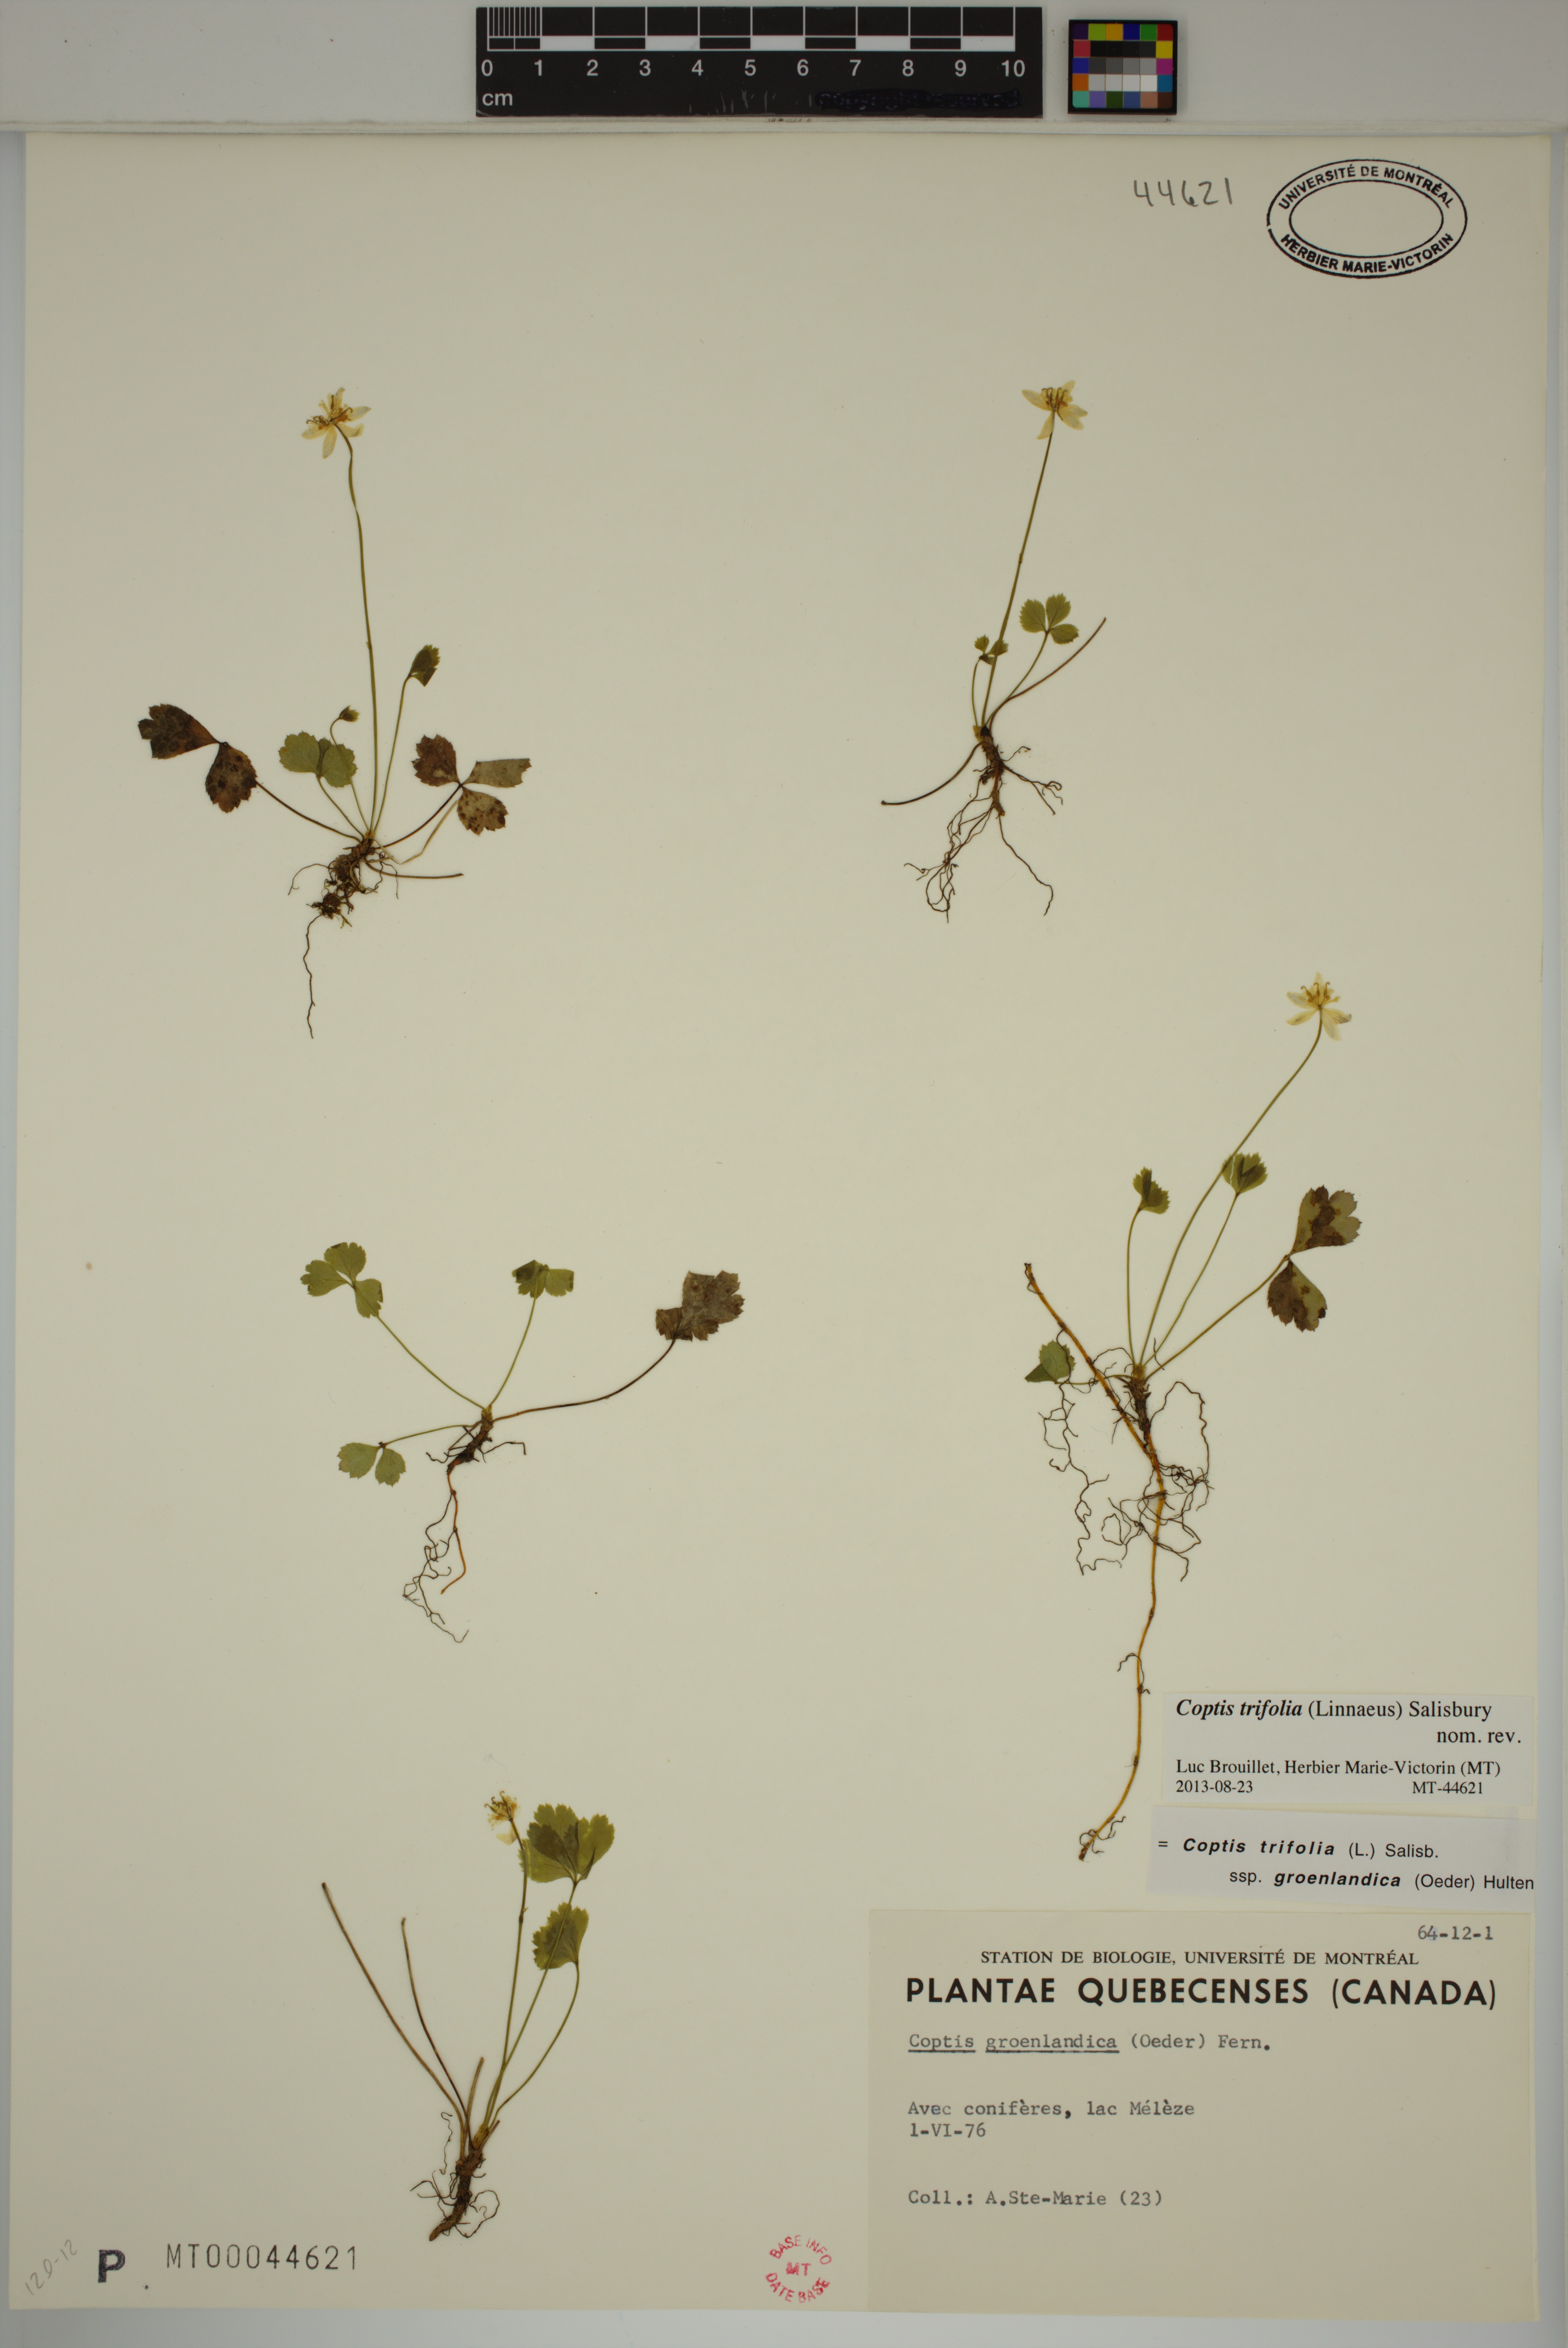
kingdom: Plantae
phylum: Tracheophyta
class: Magnoliopsida
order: Ranunculales
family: Ranunculaceae
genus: Coptis
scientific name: Coptis trifolia
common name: Canker-root
